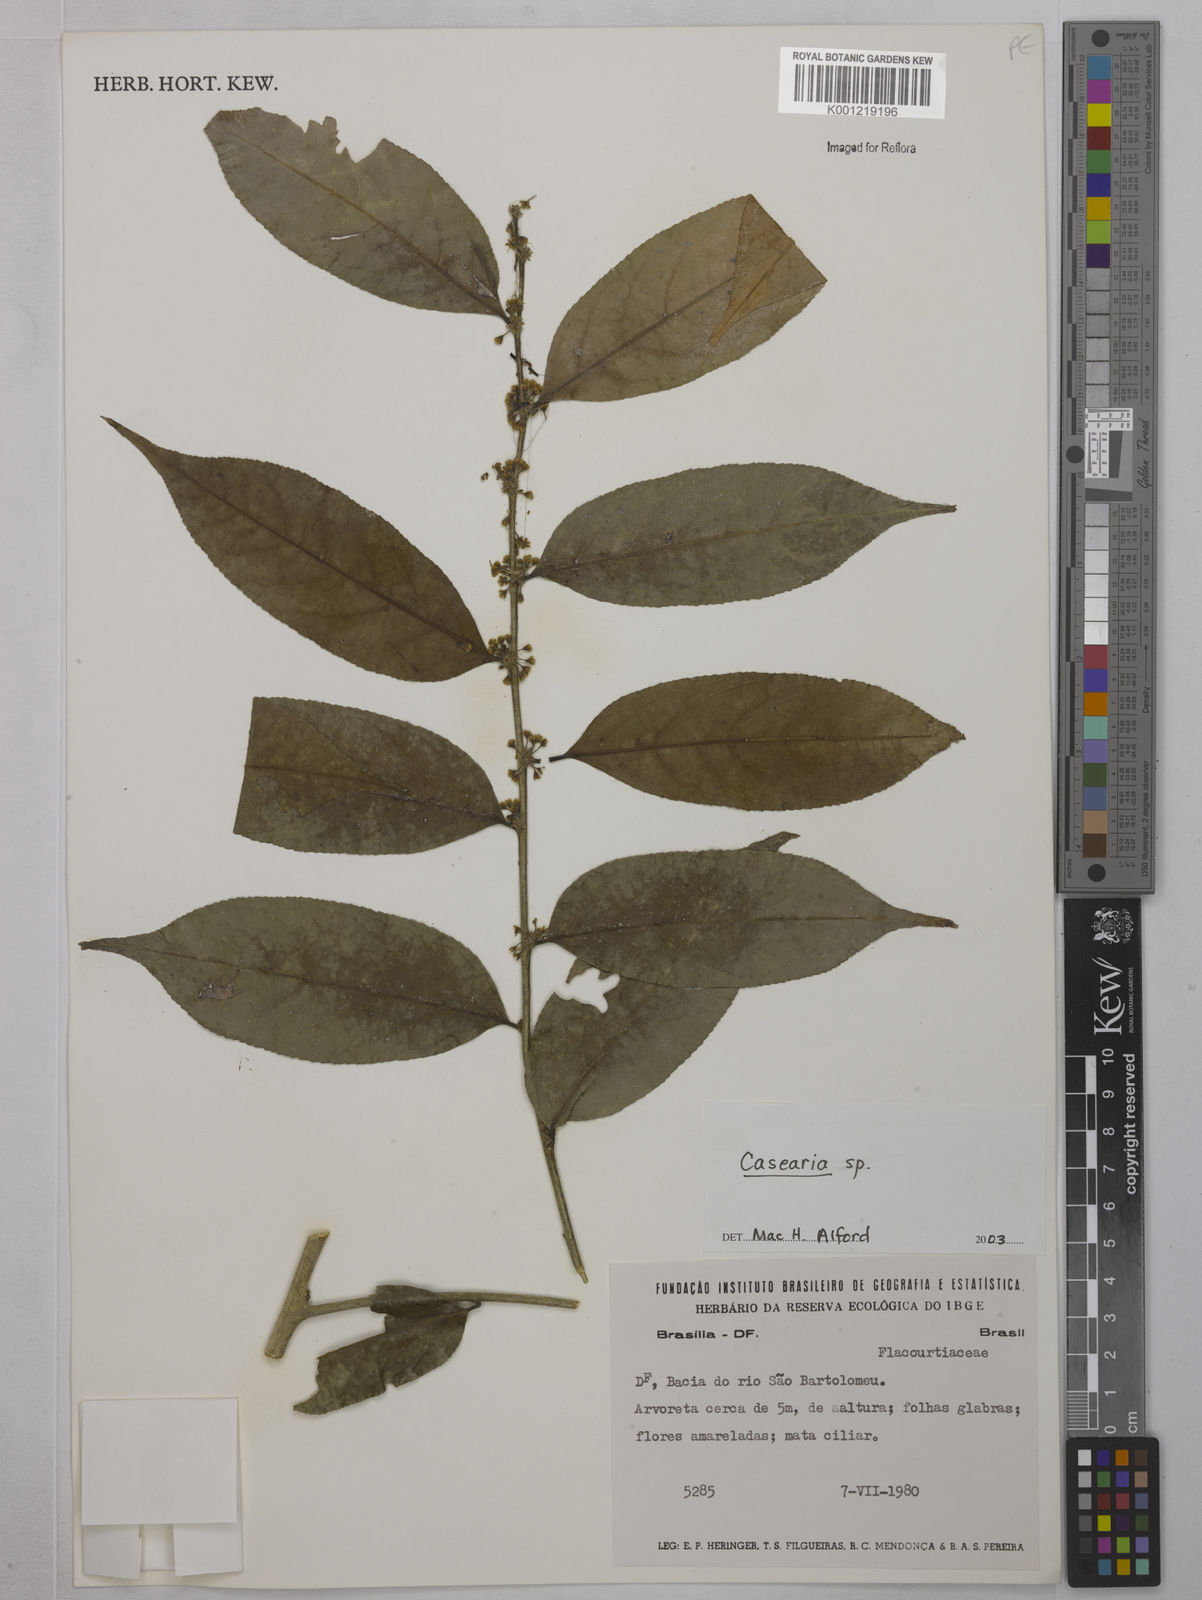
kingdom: Plantae
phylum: Tracheophyta
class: Magnoliopsida
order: Malpighiales
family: Salicaceae
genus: Casearia
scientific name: Casearia
